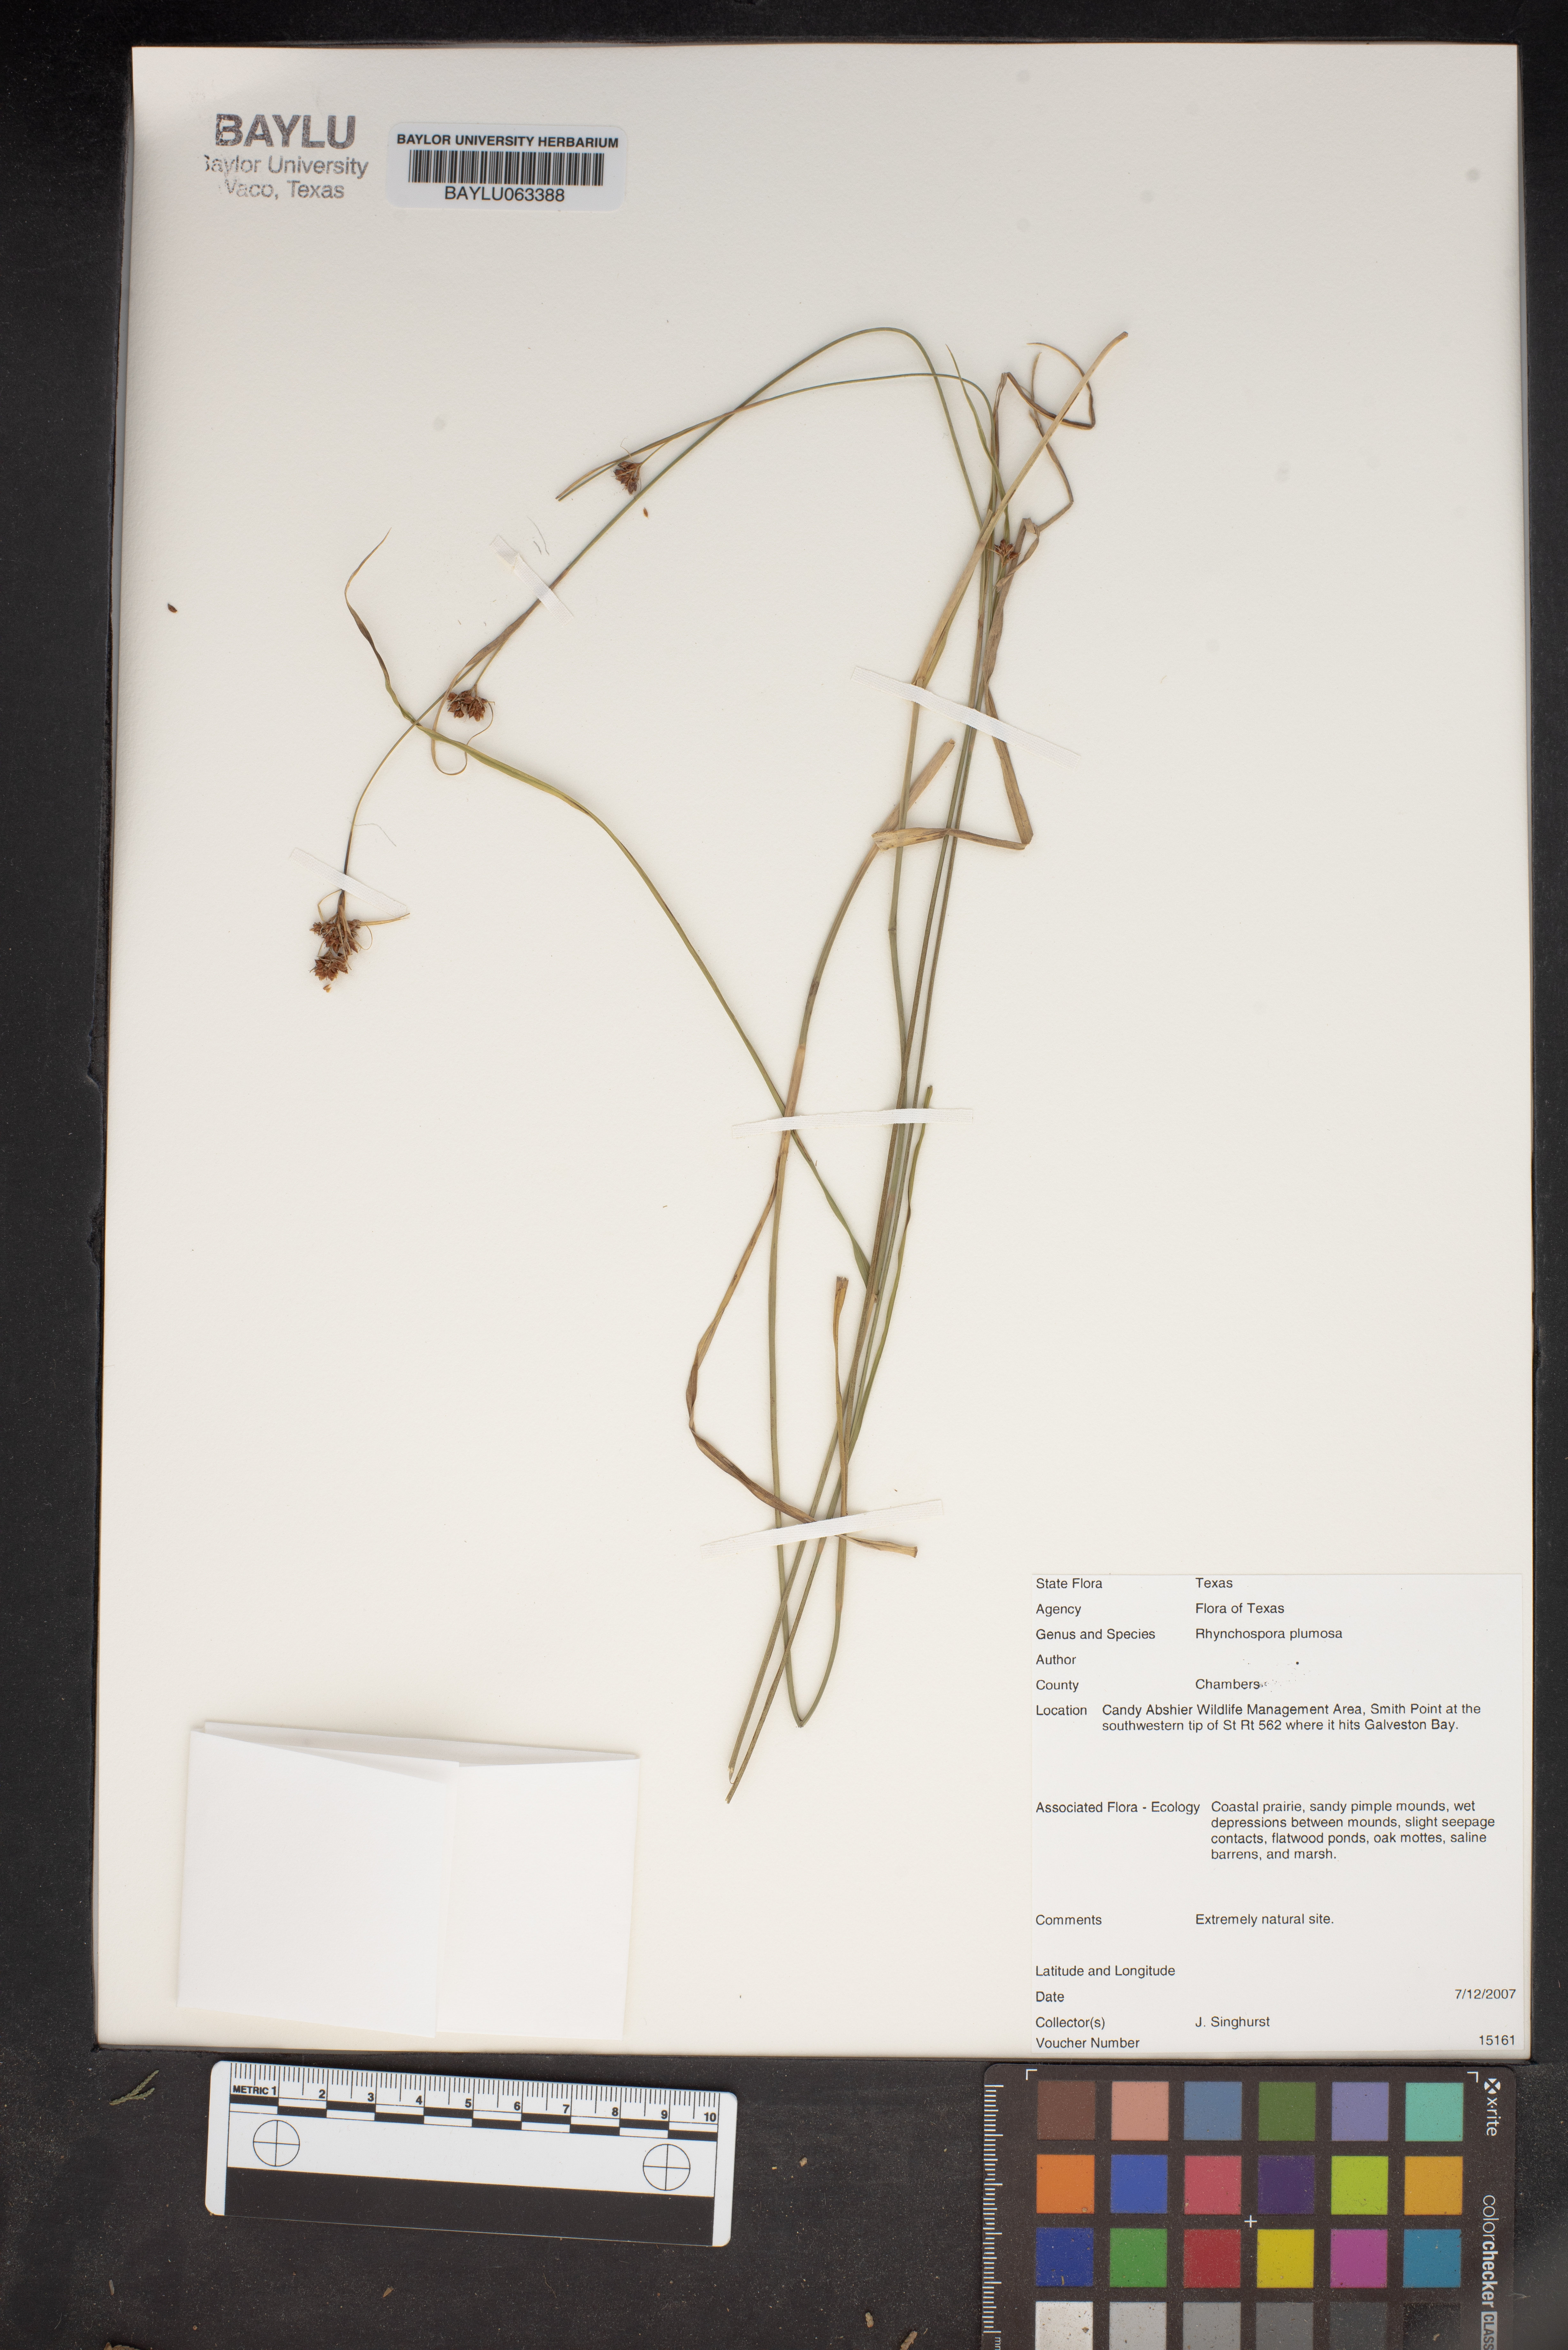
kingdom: Plantae
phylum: Tracheophyta
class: Liliopsida
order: Poales
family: Cyperaceae
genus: Rhynchospora
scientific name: Rhynchospora plumosa
